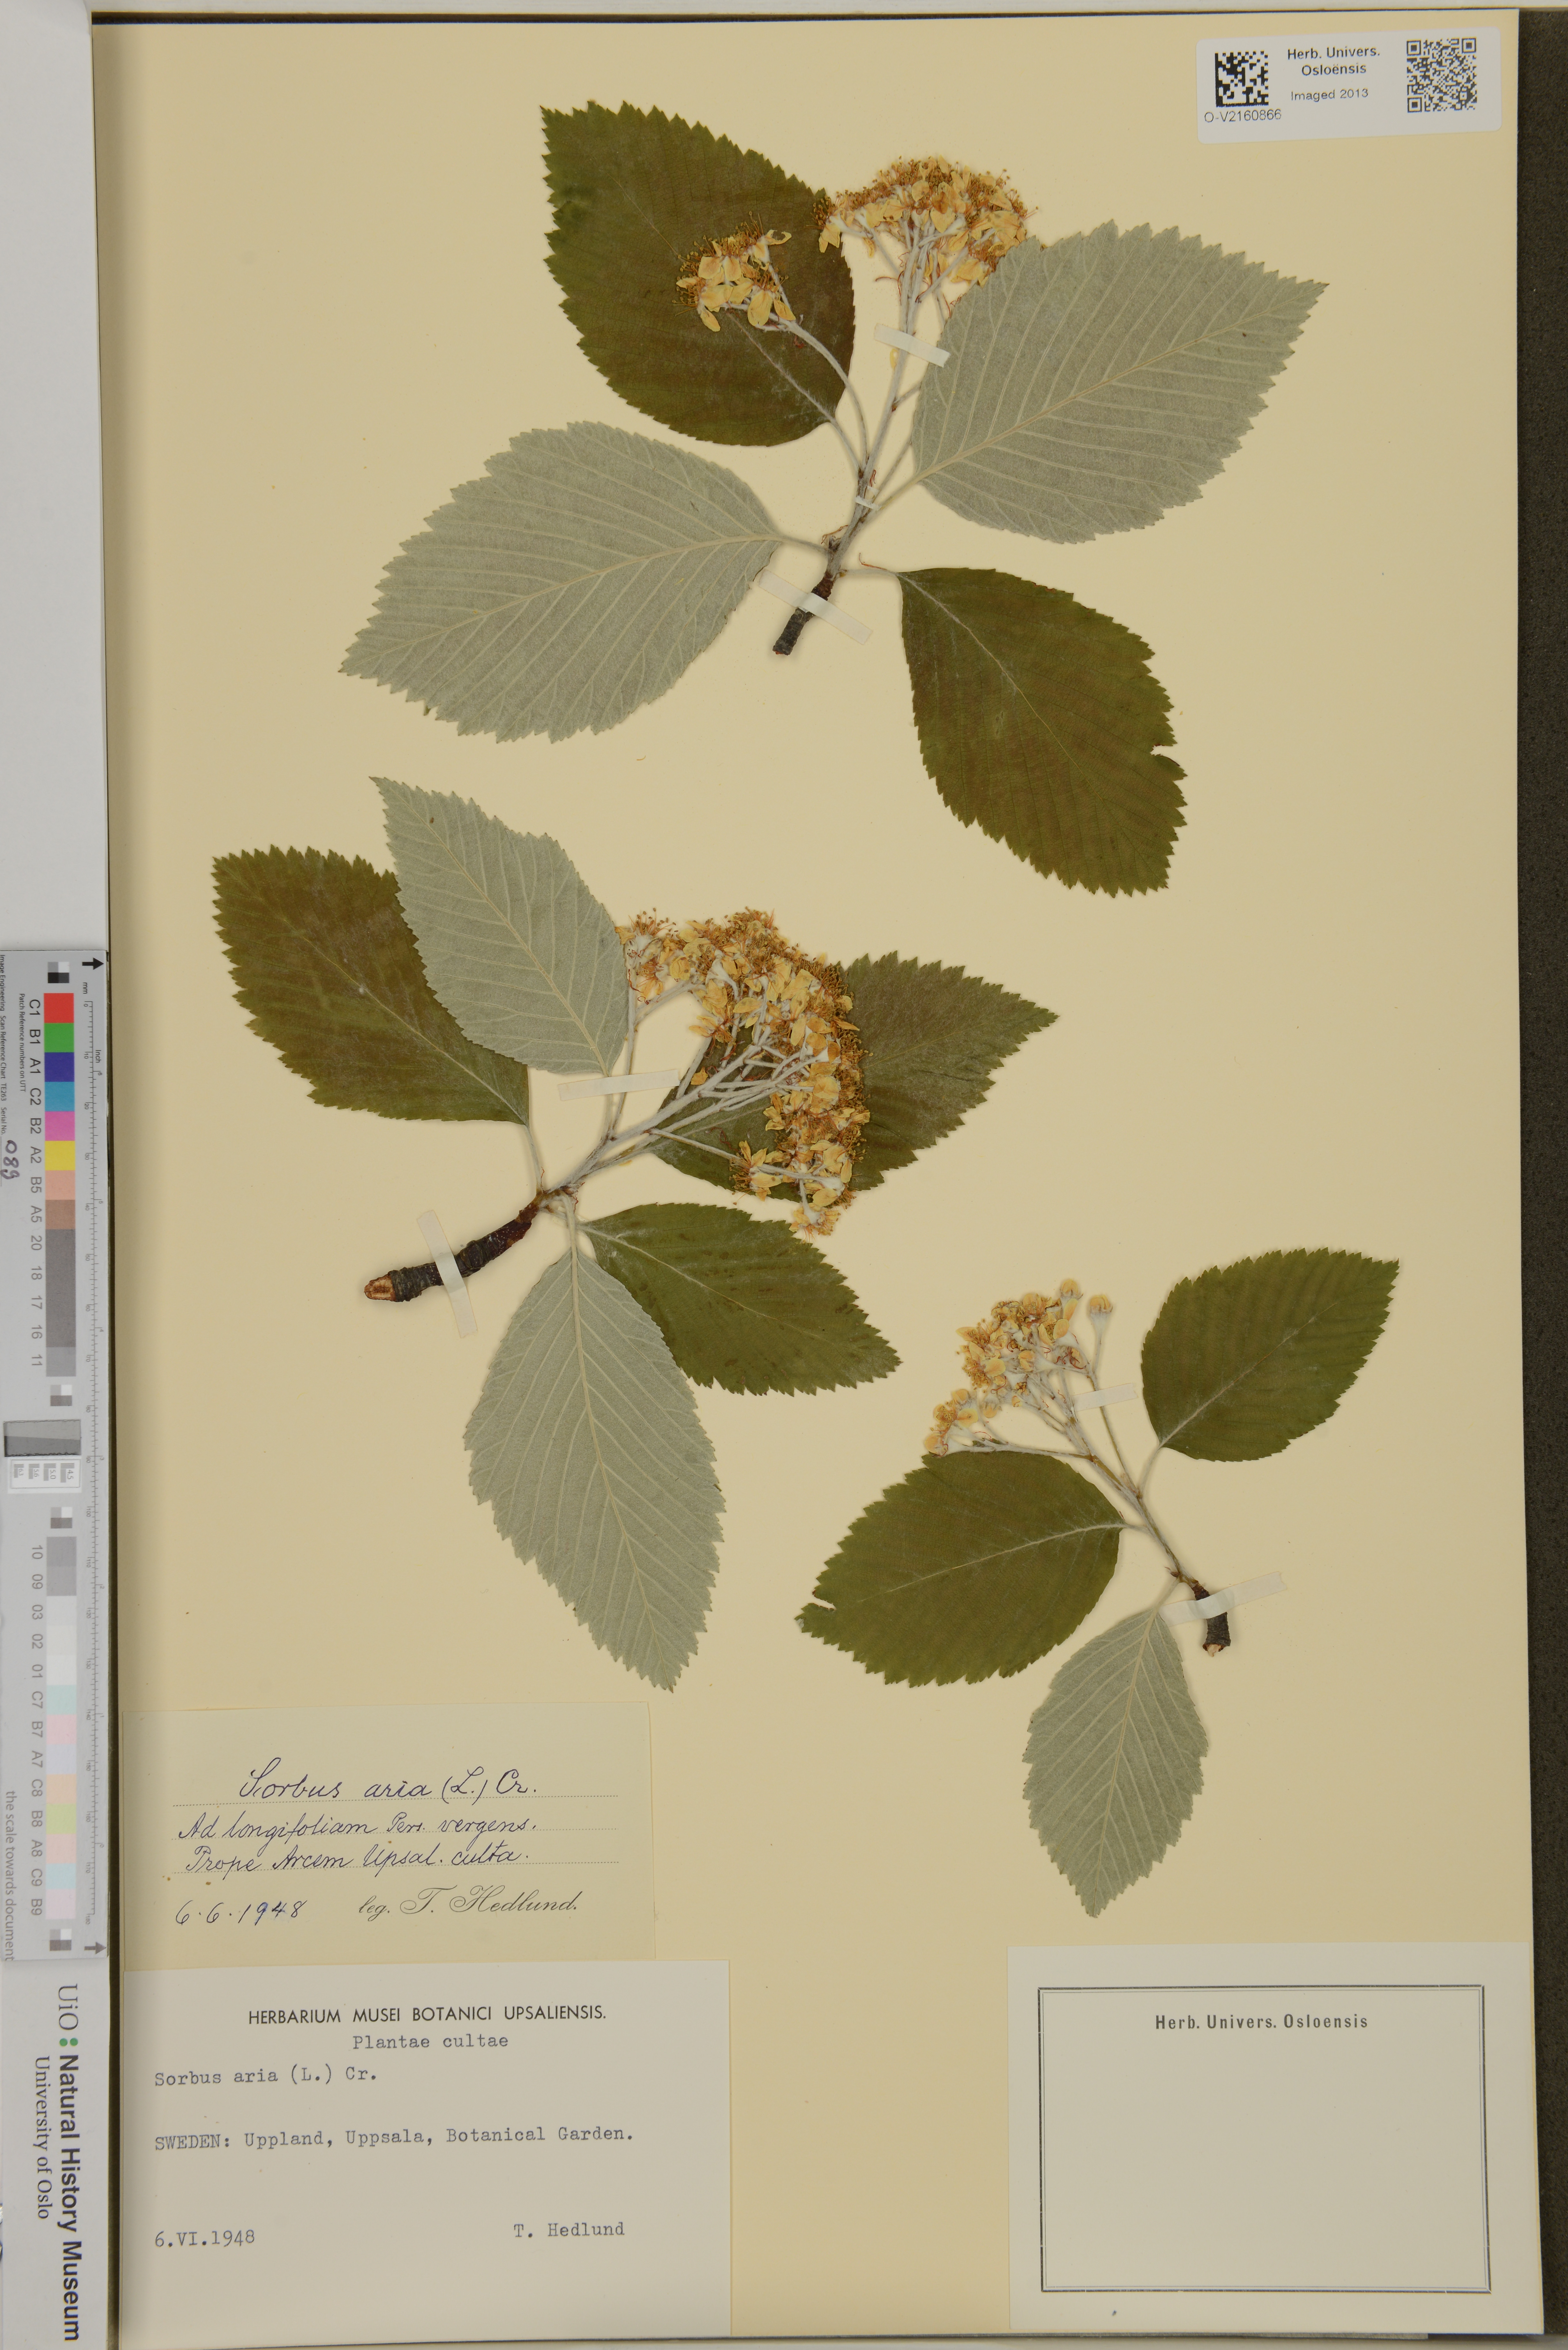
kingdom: Plantae
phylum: Tracheophyta
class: Magnoliopsida
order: Rosales
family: Rosaceae
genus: Sorbus
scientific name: Sorbus aria
